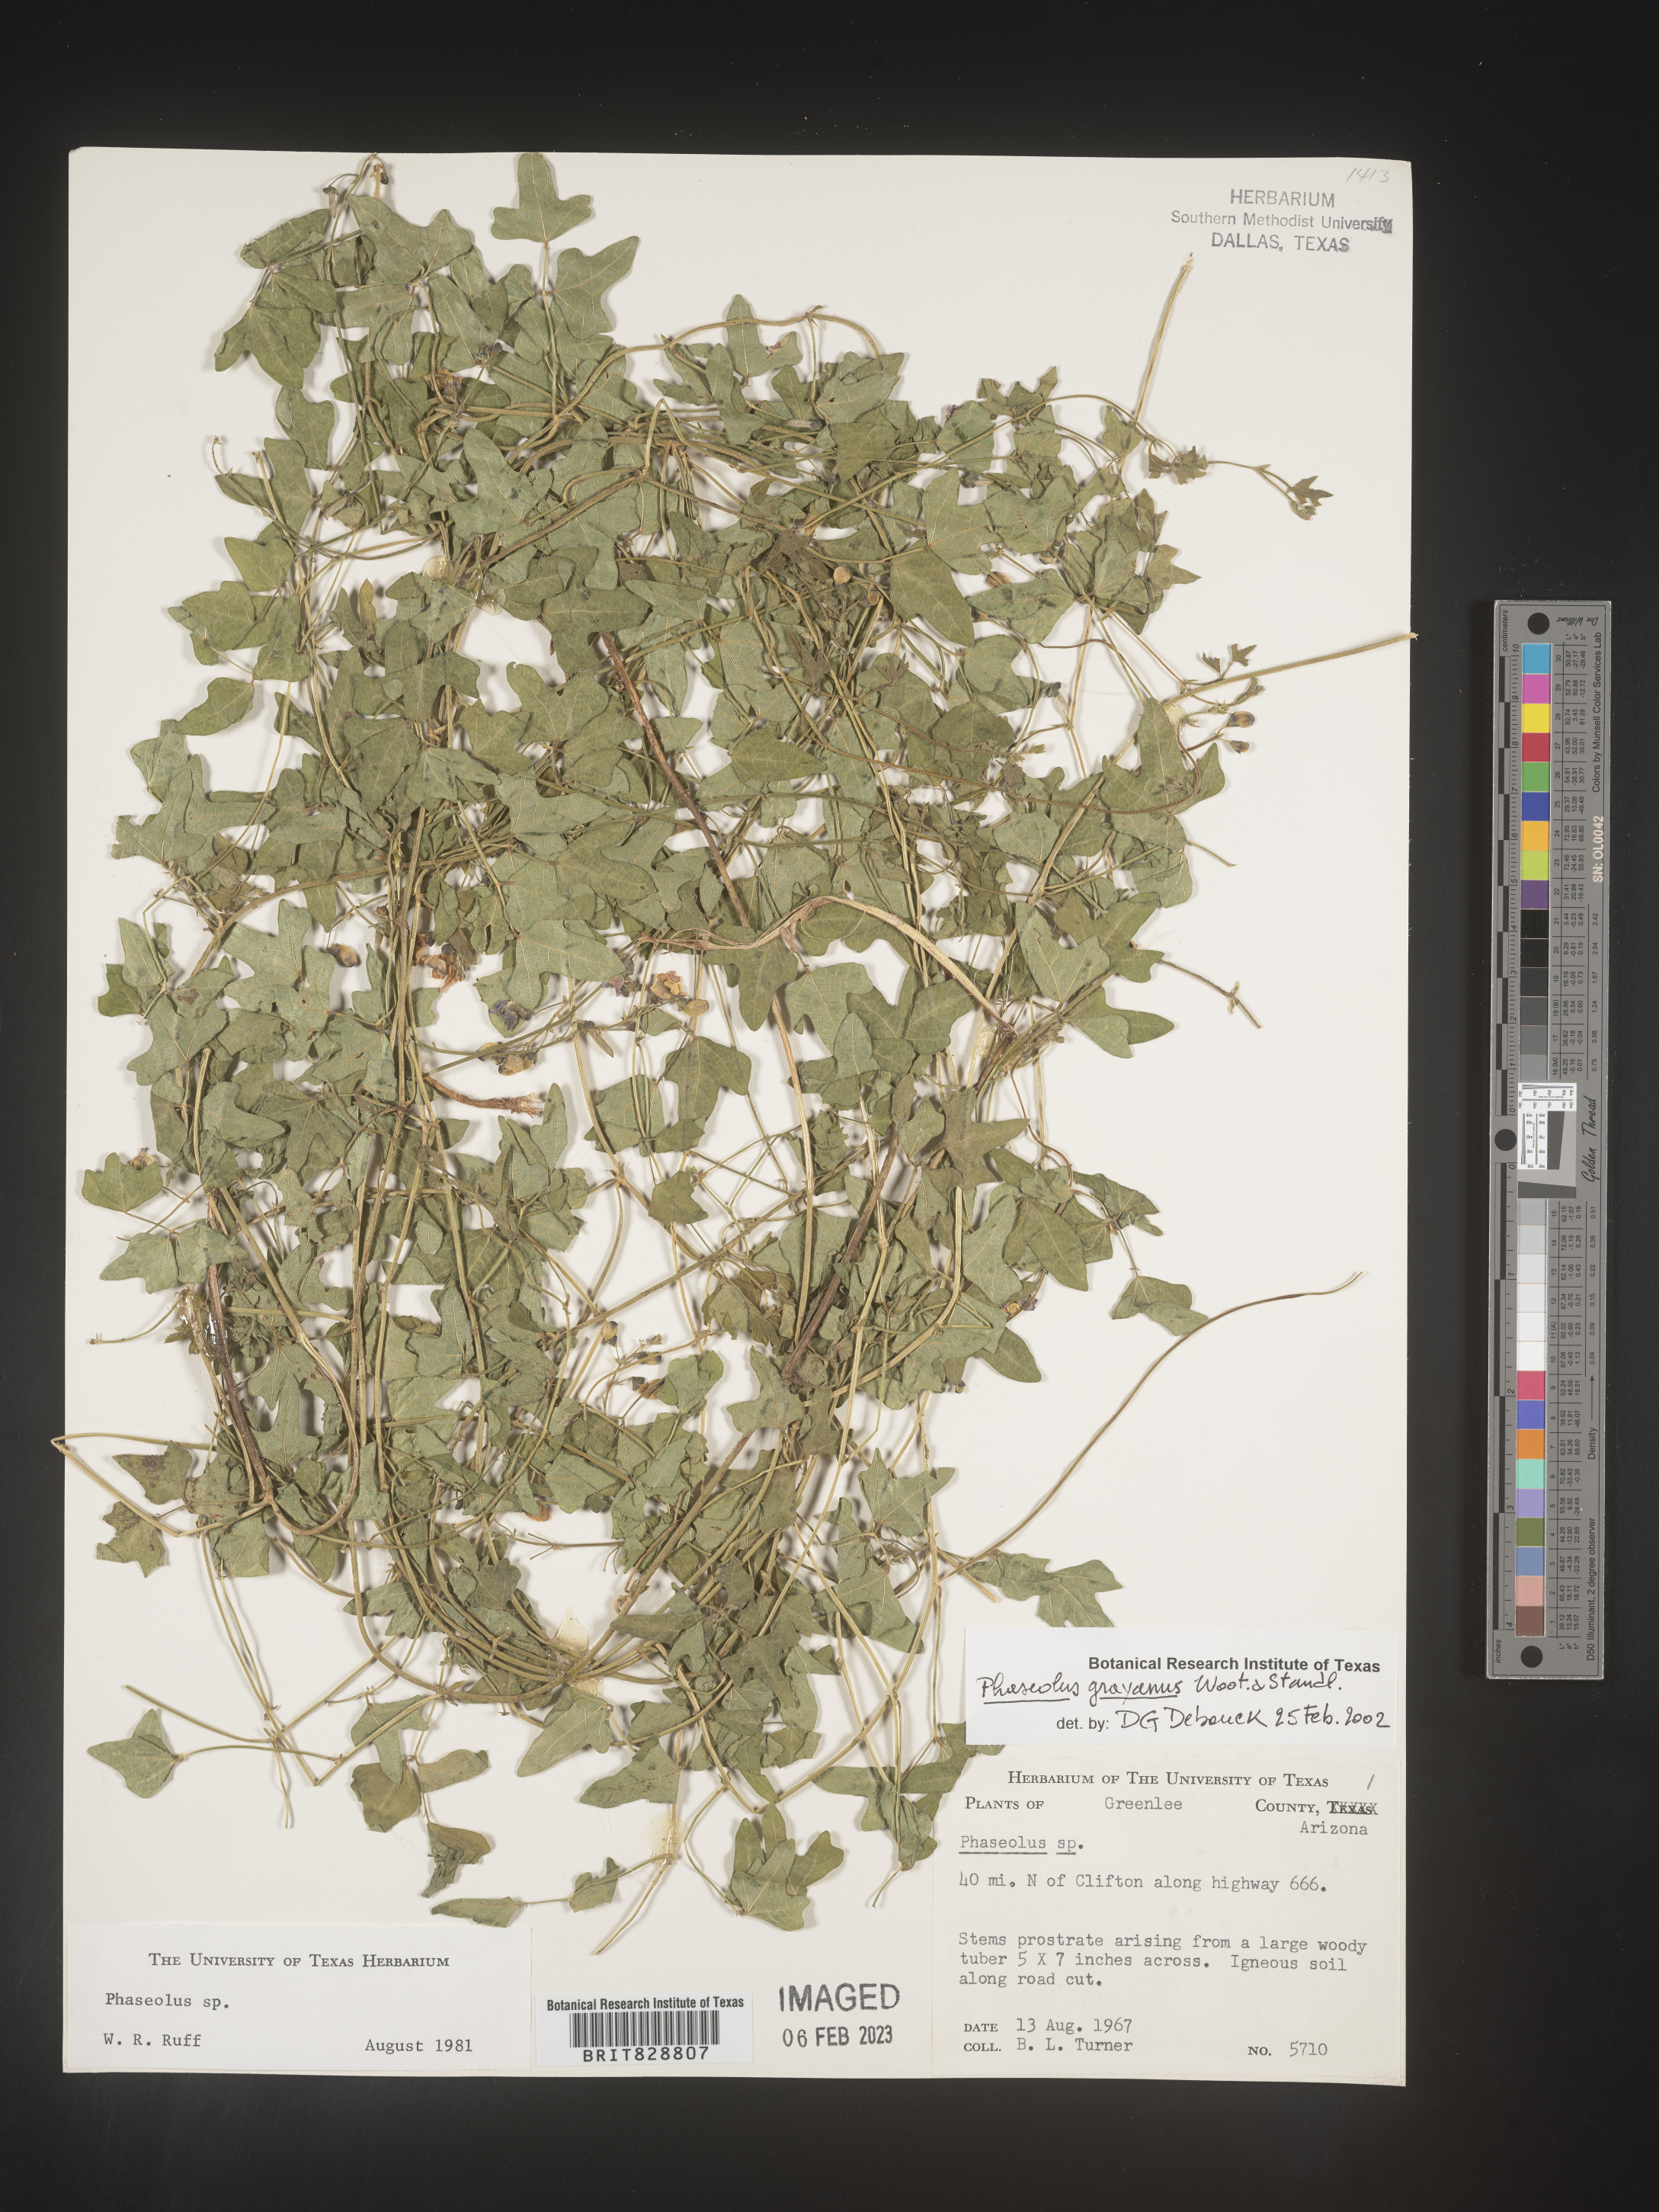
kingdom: Plantae
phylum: Tracheophyta
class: Magnoliopsida
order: Fabales
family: Fabaceae
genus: Phaseolus
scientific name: Phaseolus
